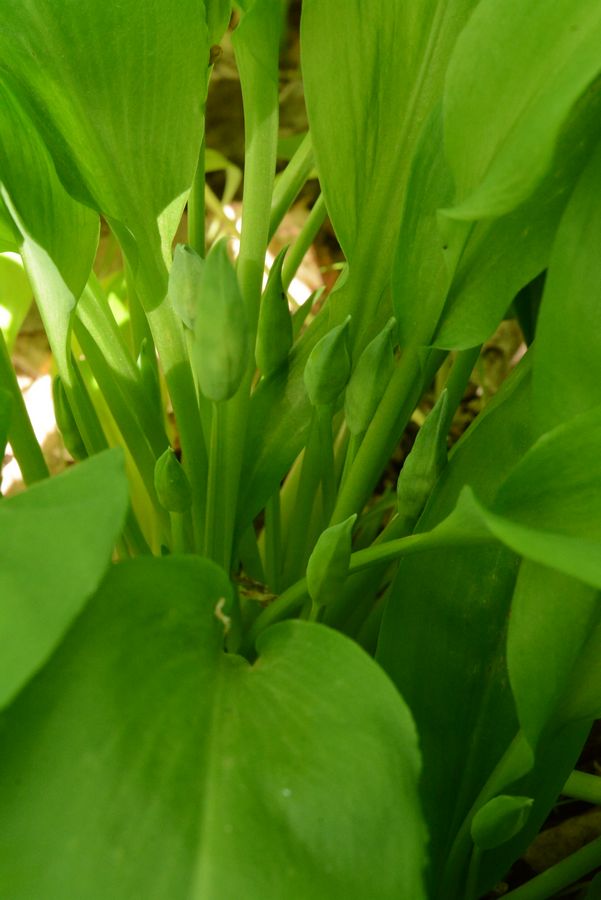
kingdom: Plantae
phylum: Tracheophyta
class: Liliopsida
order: Asparagales
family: Amaryllidaceae
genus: Allium
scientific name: Allium microdictyon
